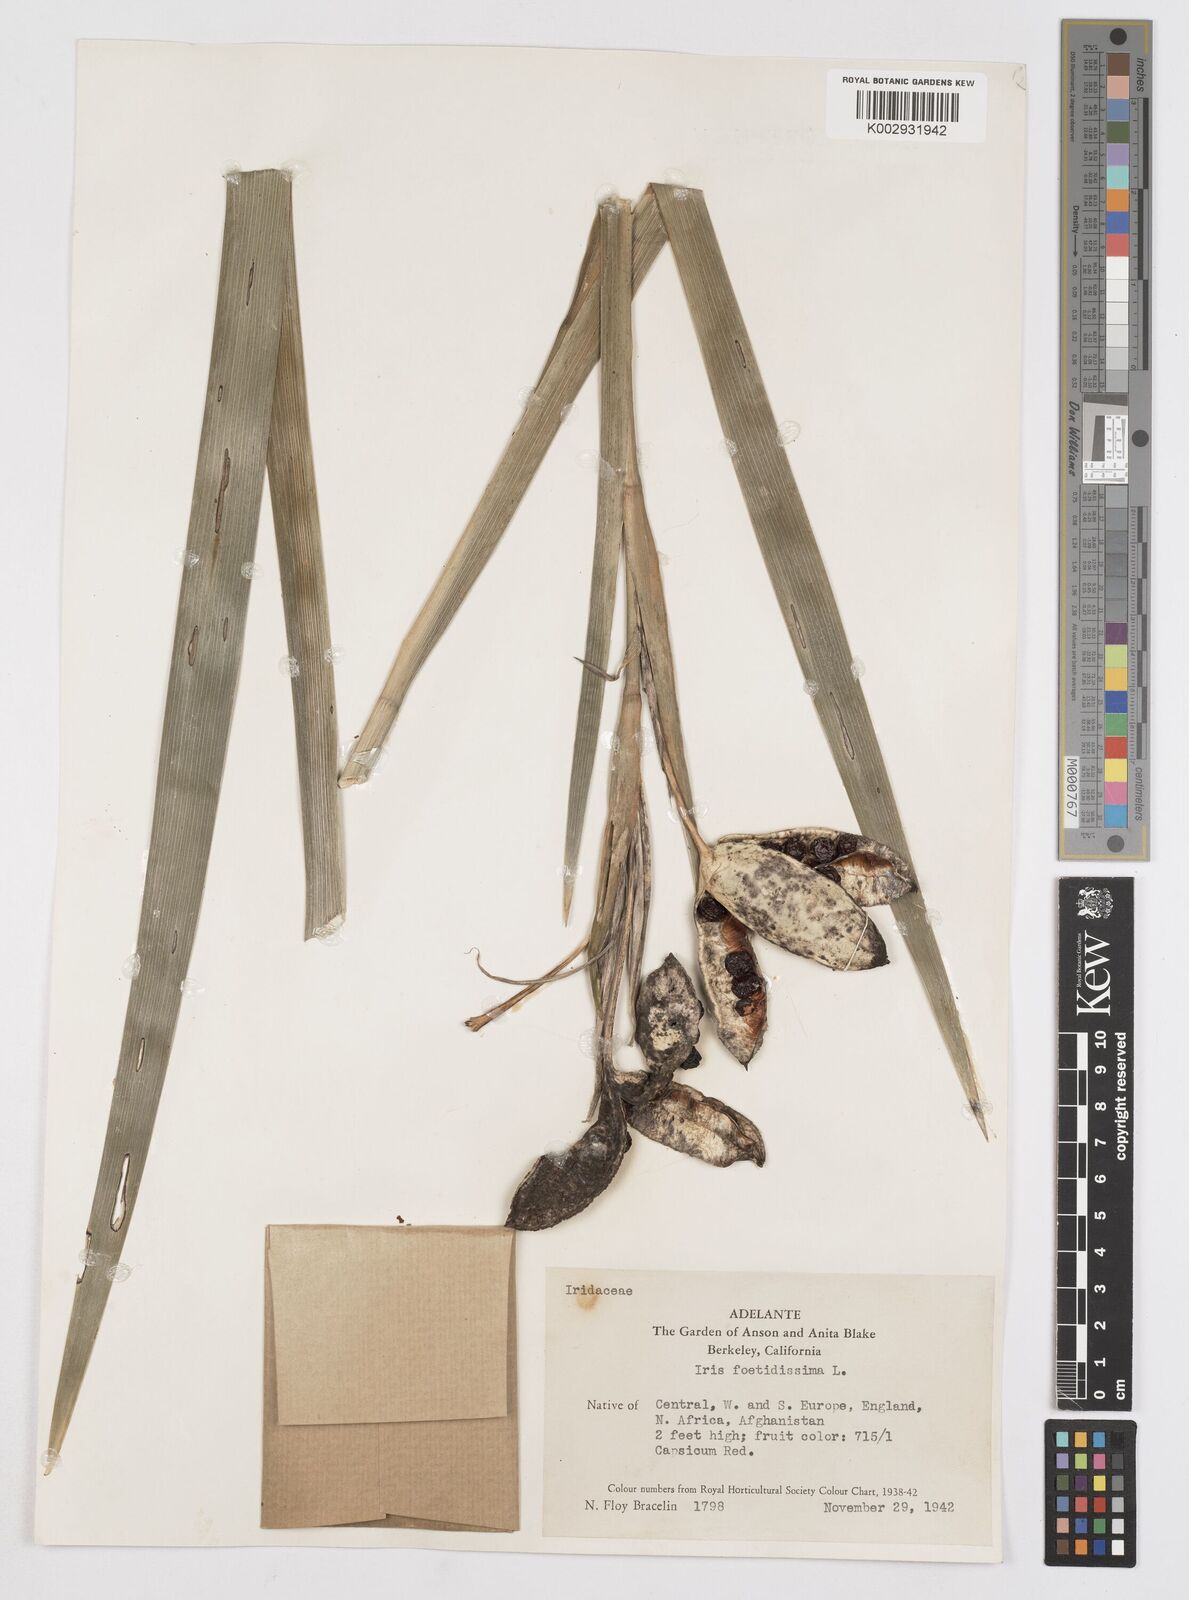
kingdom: Plantae
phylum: Tracheophyta
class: Liliopsida
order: Asparagales
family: Iridaceae
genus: Iris
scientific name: Iris foetidissima
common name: Stinking iris
